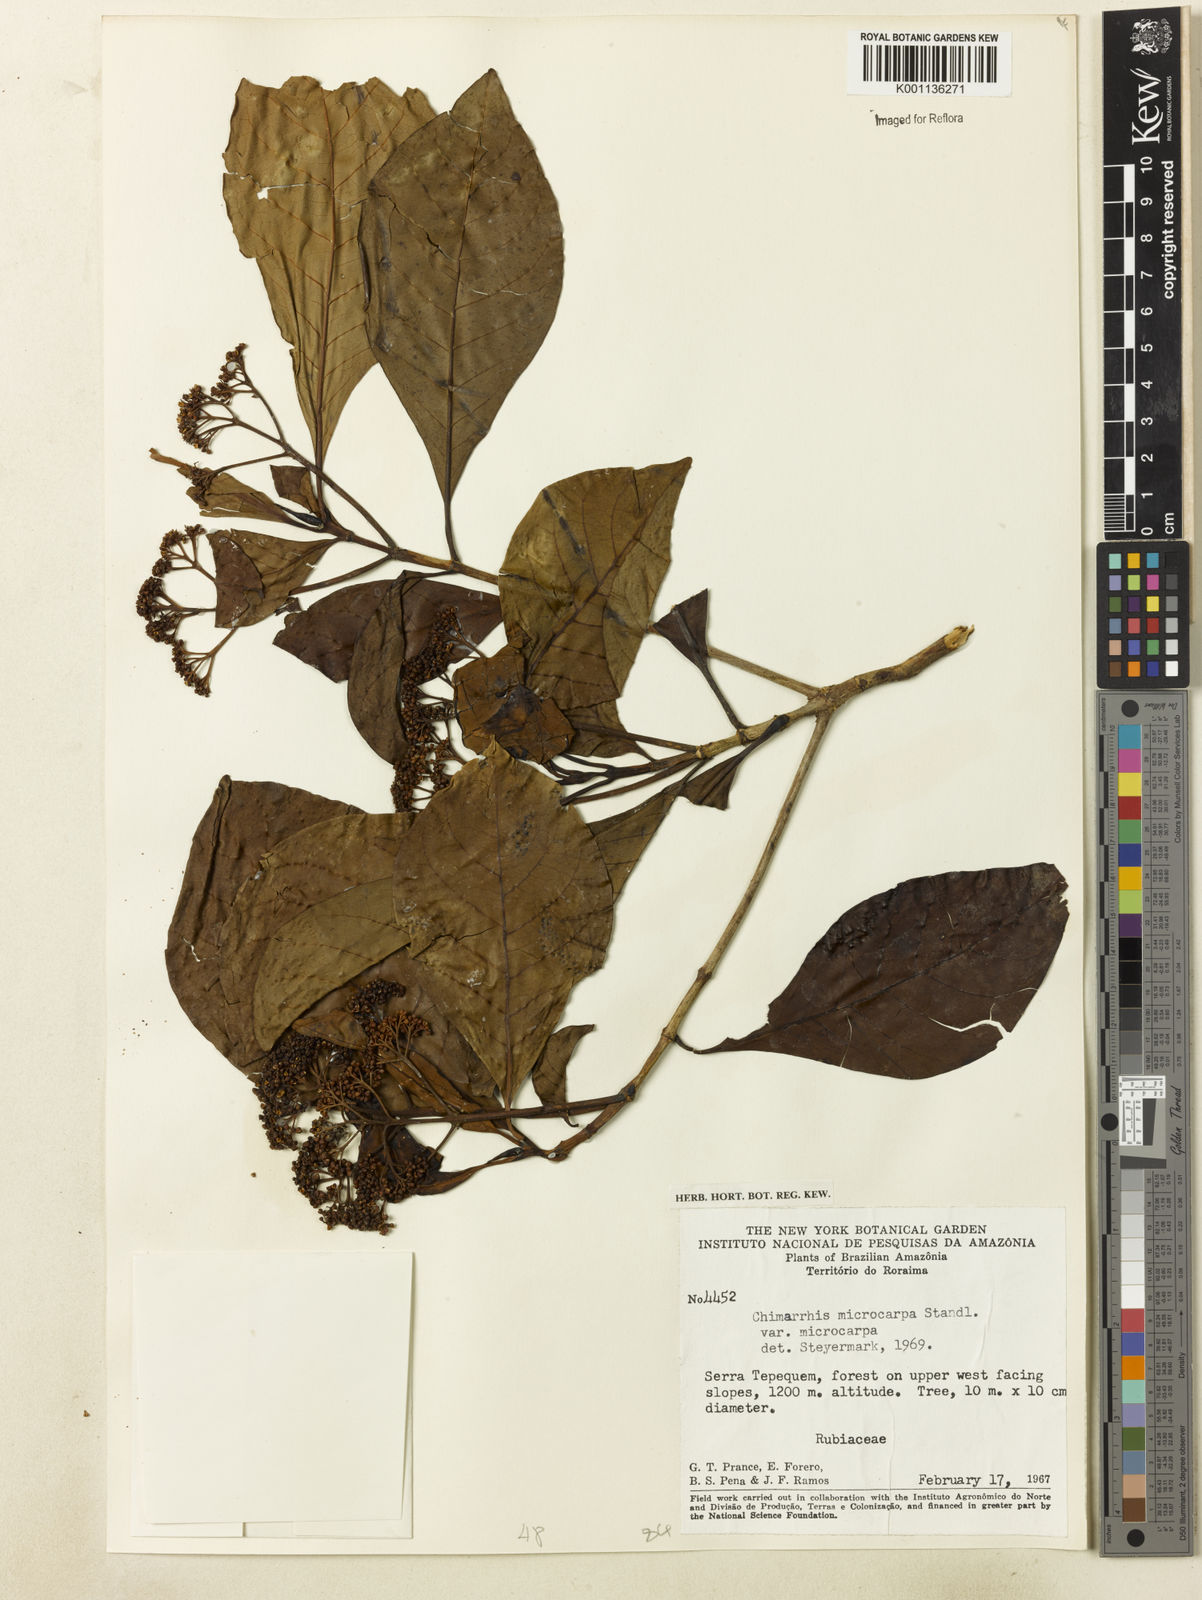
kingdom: Plantae
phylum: Tracheophyta
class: Magnoliopsida
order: Gentianales
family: Rubiaceae
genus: Chimarrhis
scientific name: Chimarrhis microcarpa
